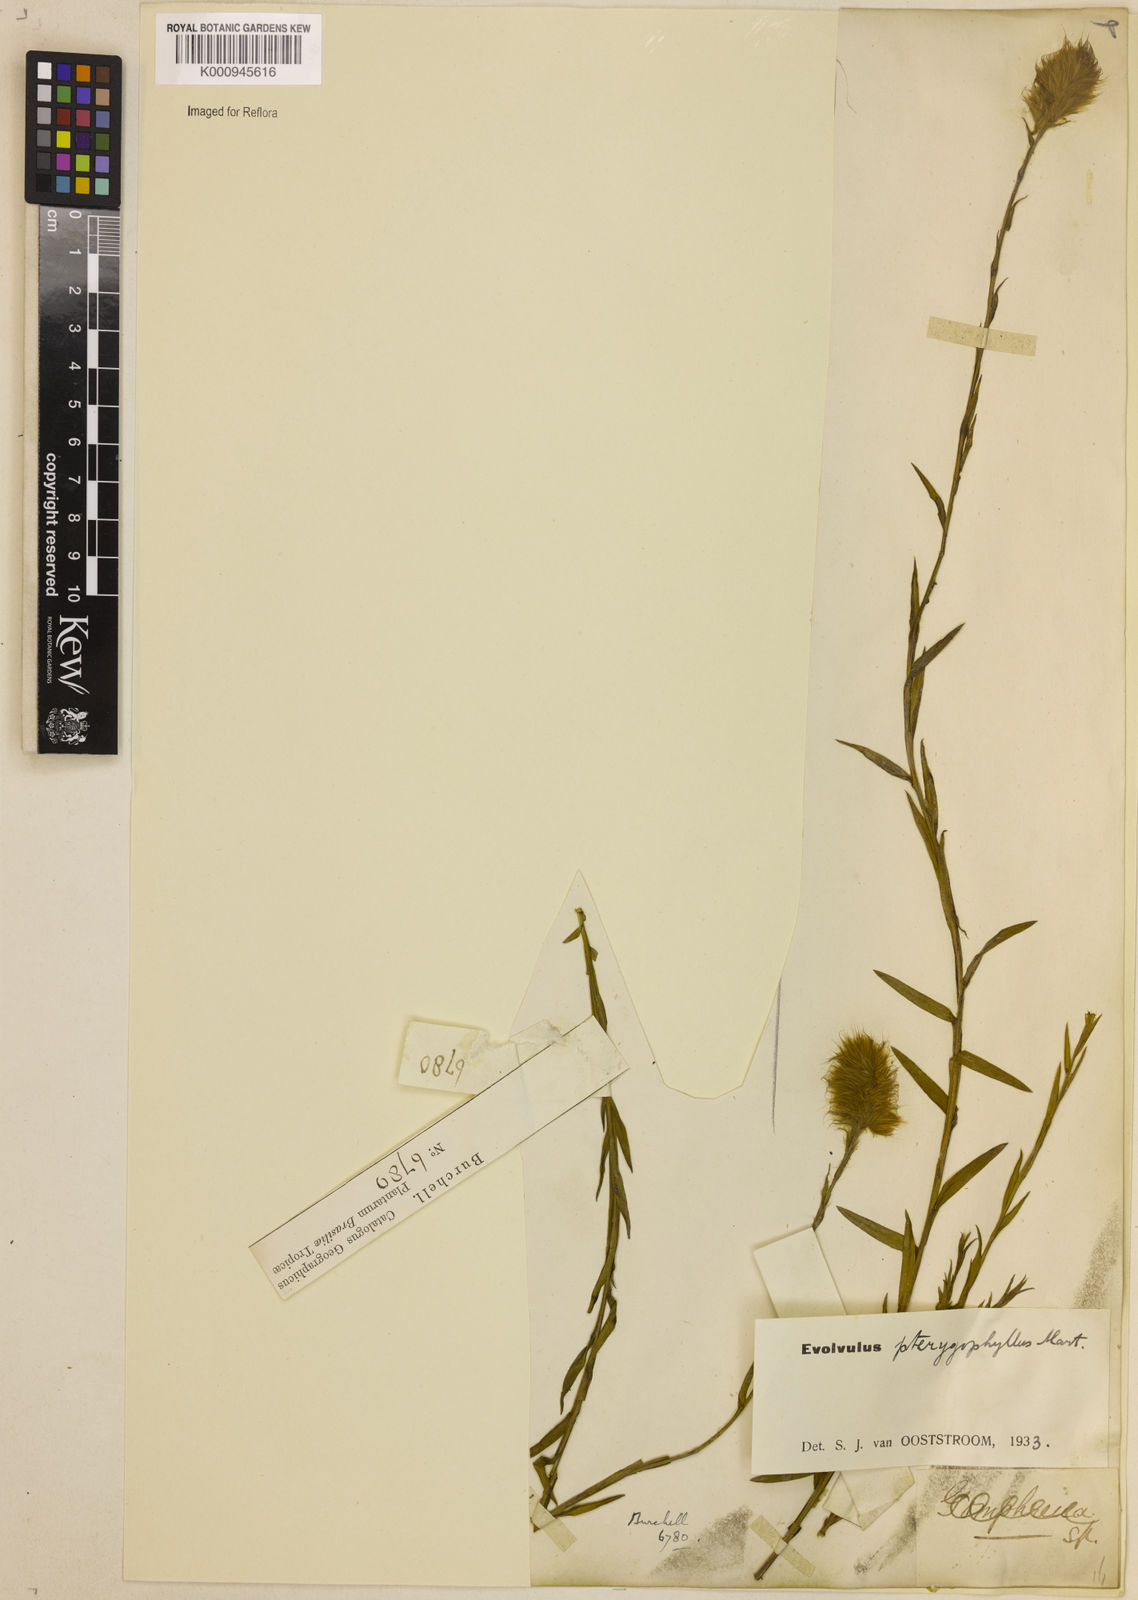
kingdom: Plantae
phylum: Tracheophyta
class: Magnoliopsida
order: Solanales
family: Convolvulaceae
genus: Evolvulus
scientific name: Evolvulus pterygophyllus
